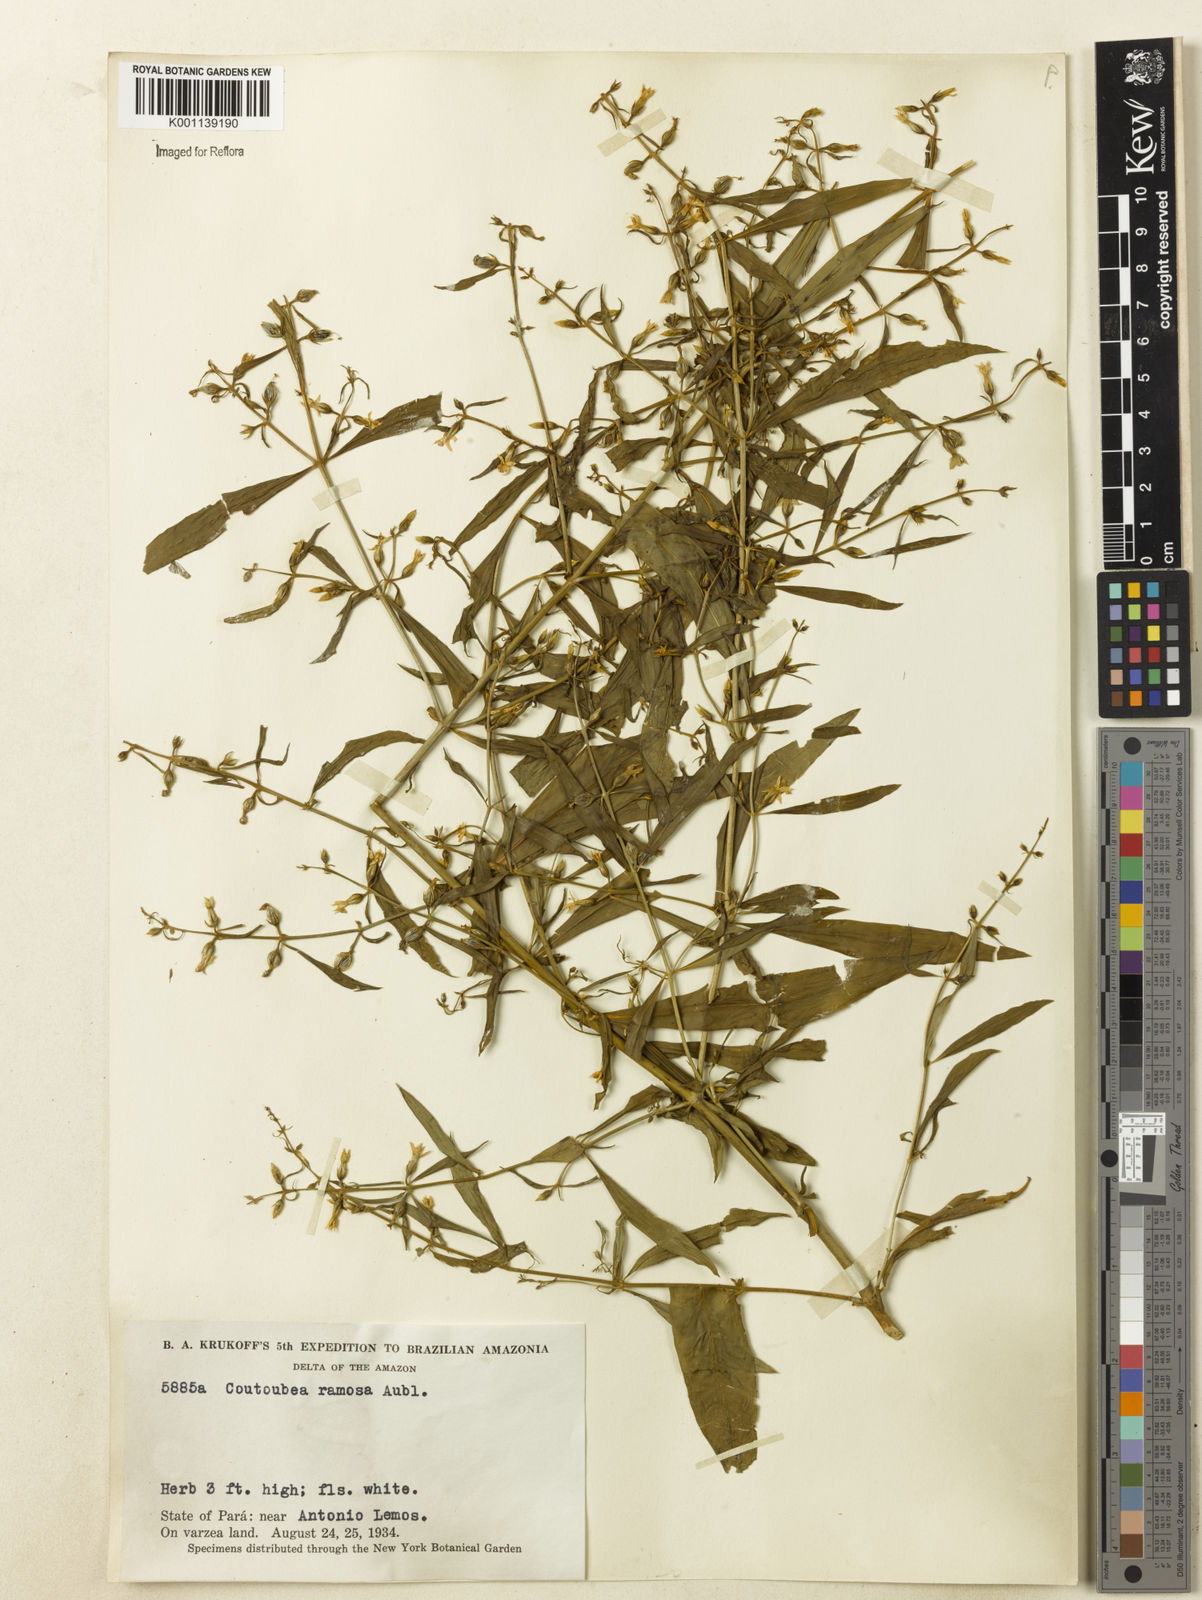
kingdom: Plantae
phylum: Tracheophyta
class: Magnoliopsida
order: Gentianales
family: Gentianaceae
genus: Coutoubea
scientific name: Coutoubea ramosa
